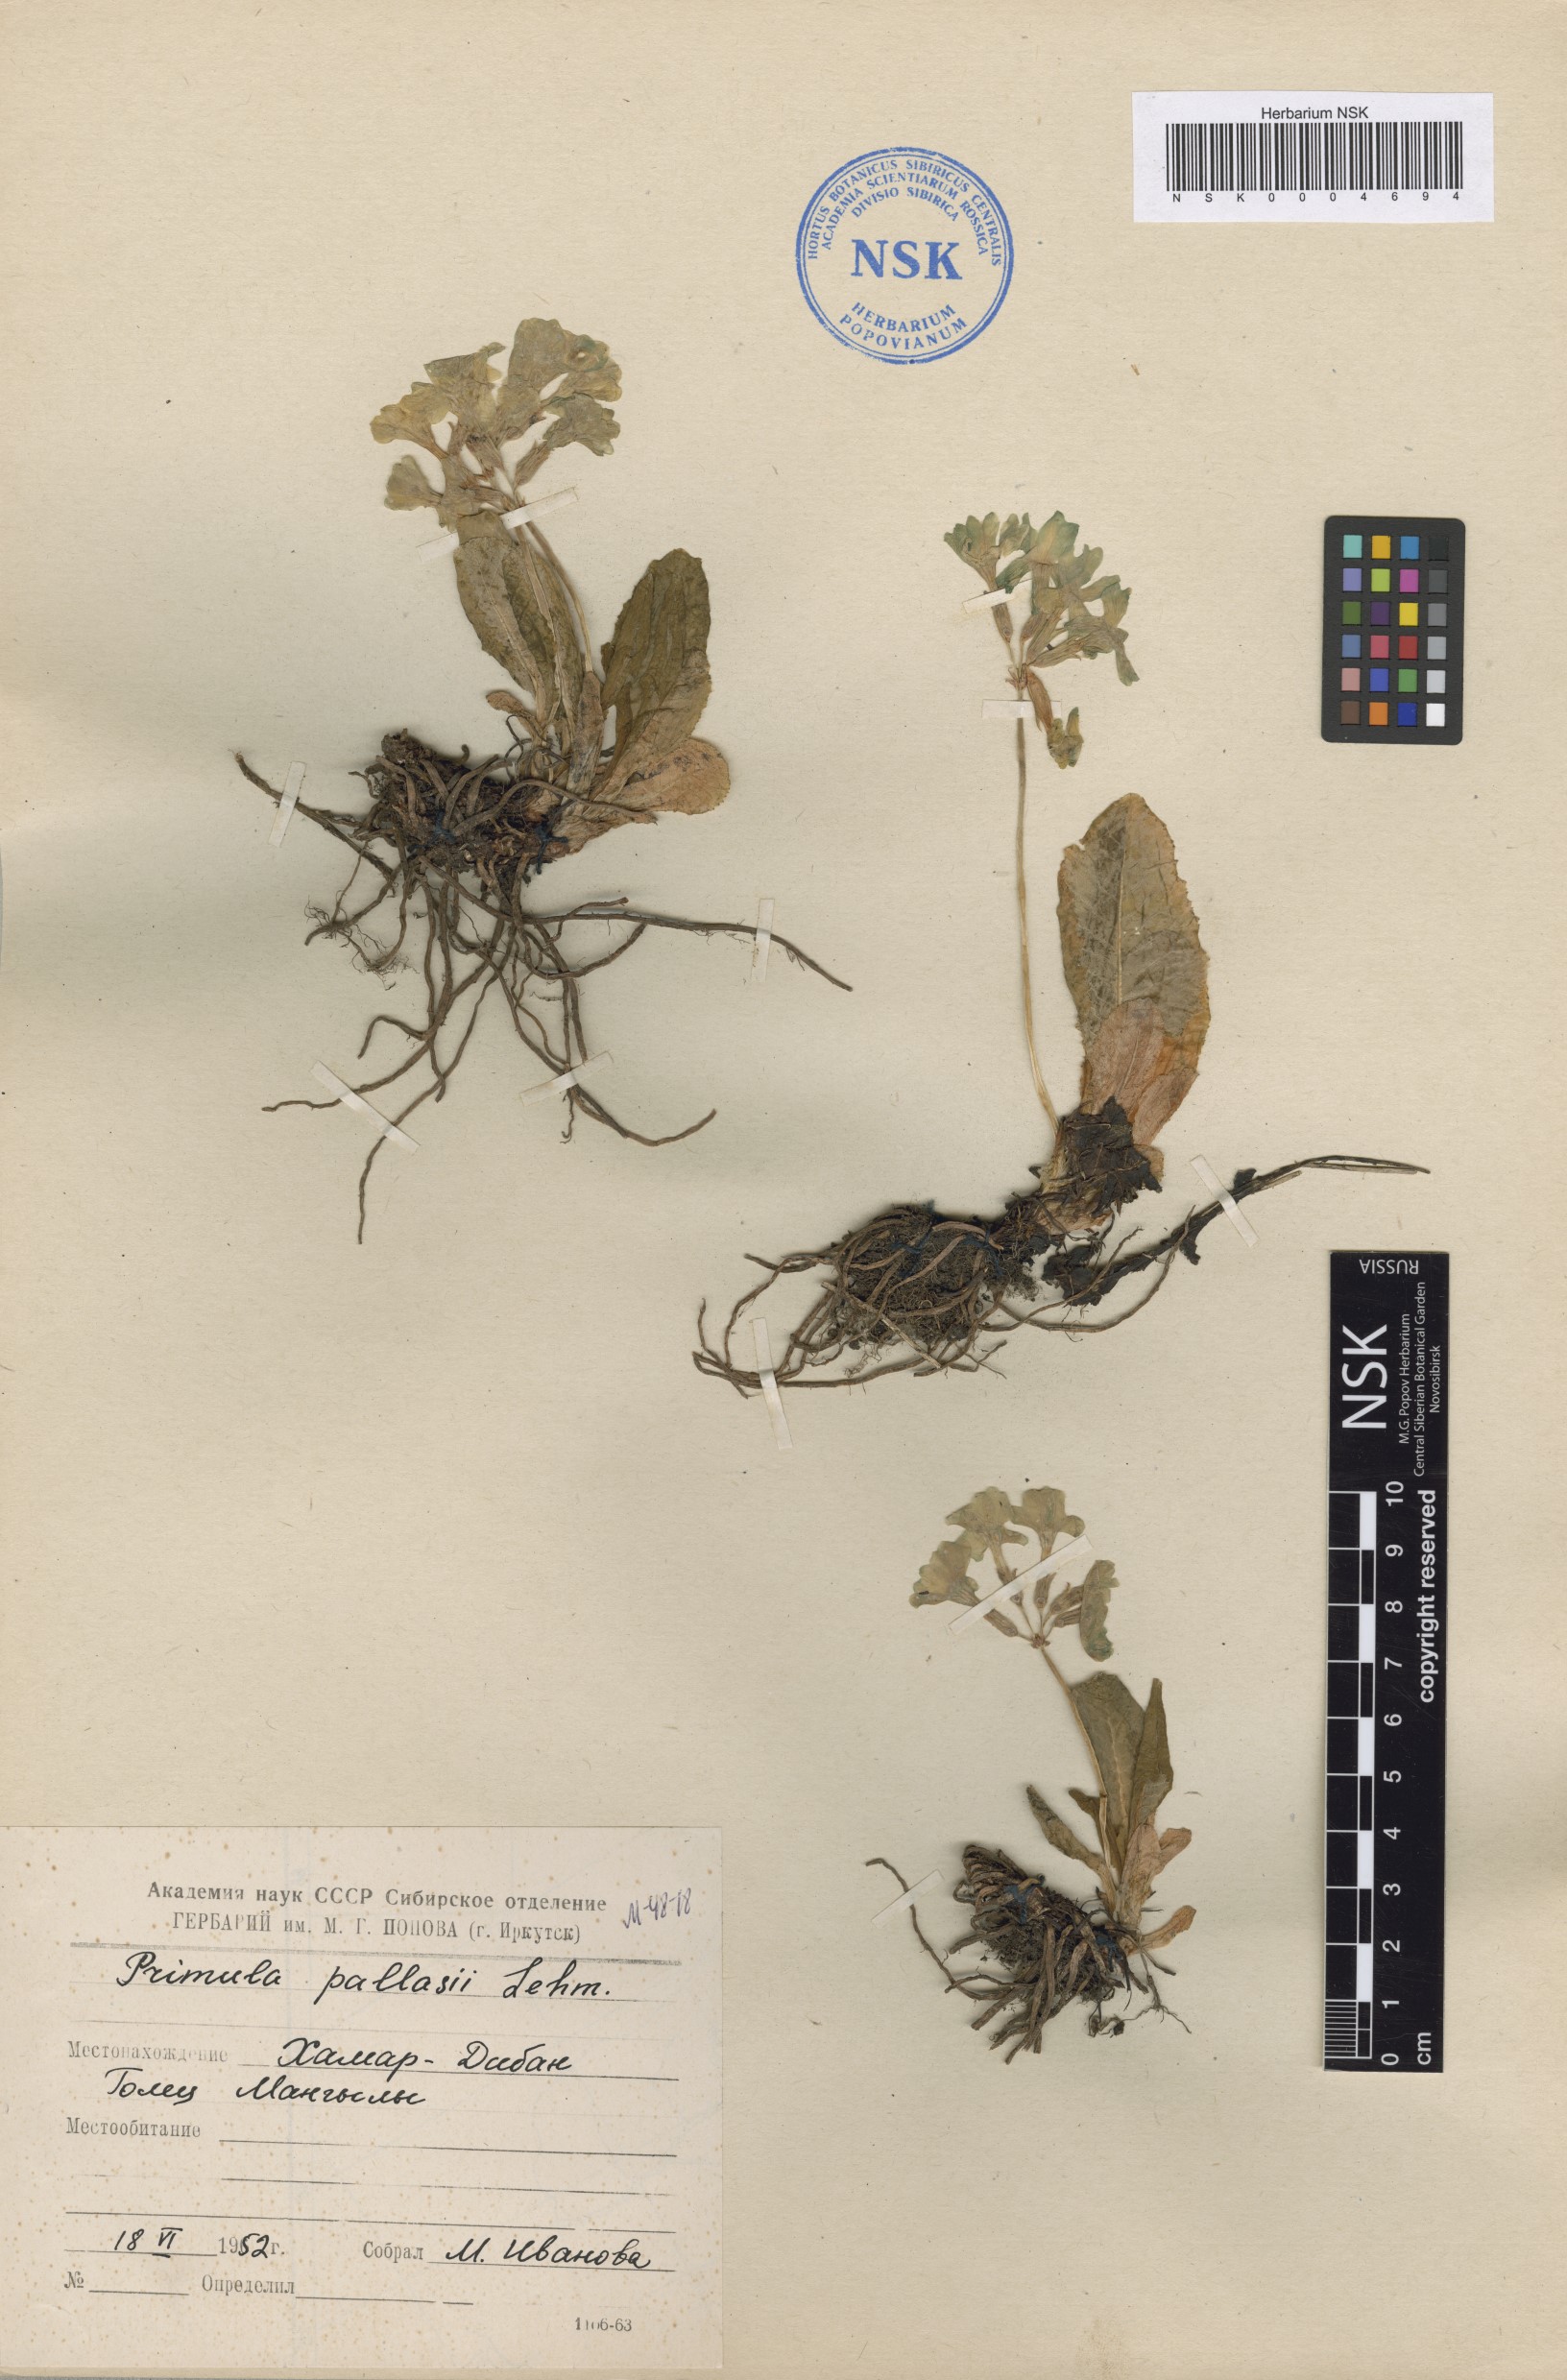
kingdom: Plantae
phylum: Tracheophyta
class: Magnoliopsida
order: Ericales
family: Primulaceae
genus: Primula
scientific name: Primula elatior
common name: Oxlip
